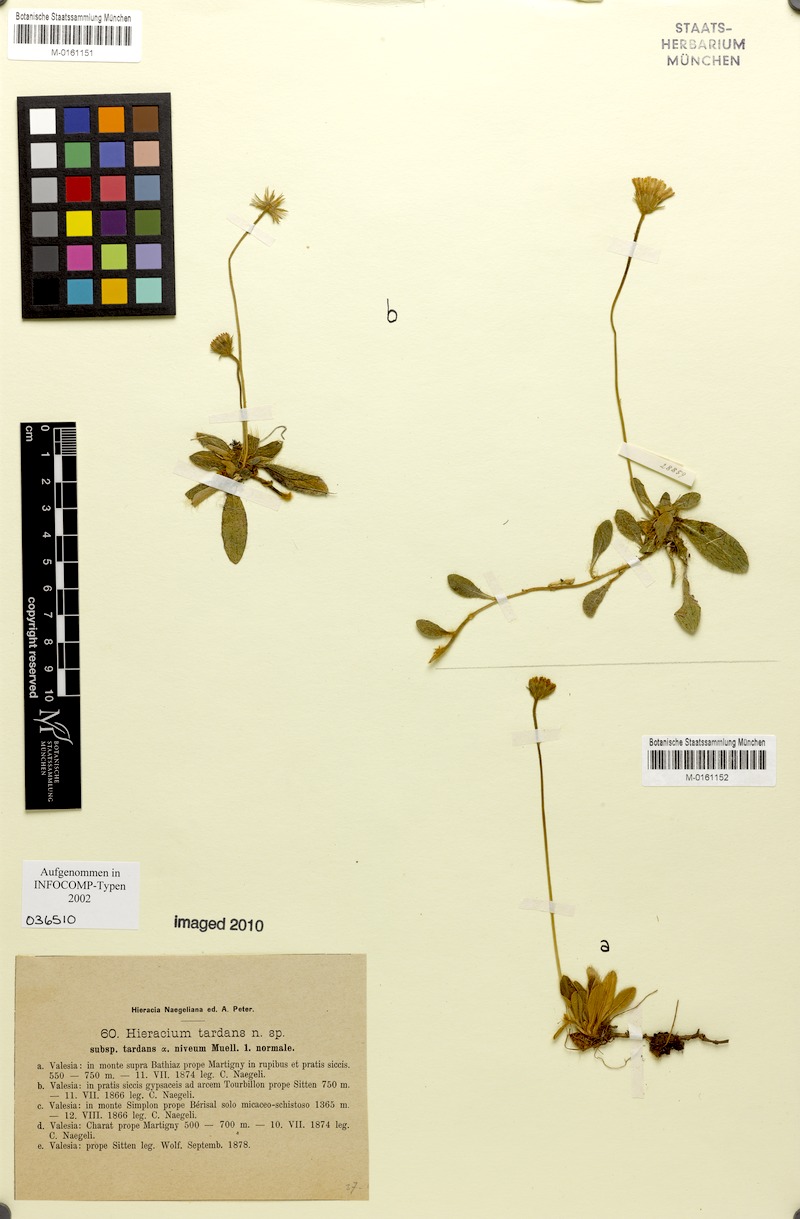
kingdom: Plantae
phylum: Tracheophyta
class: Magnoliopsida
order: Asterales
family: Asteraceae
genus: Pilosella
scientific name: Pilosella tardans
